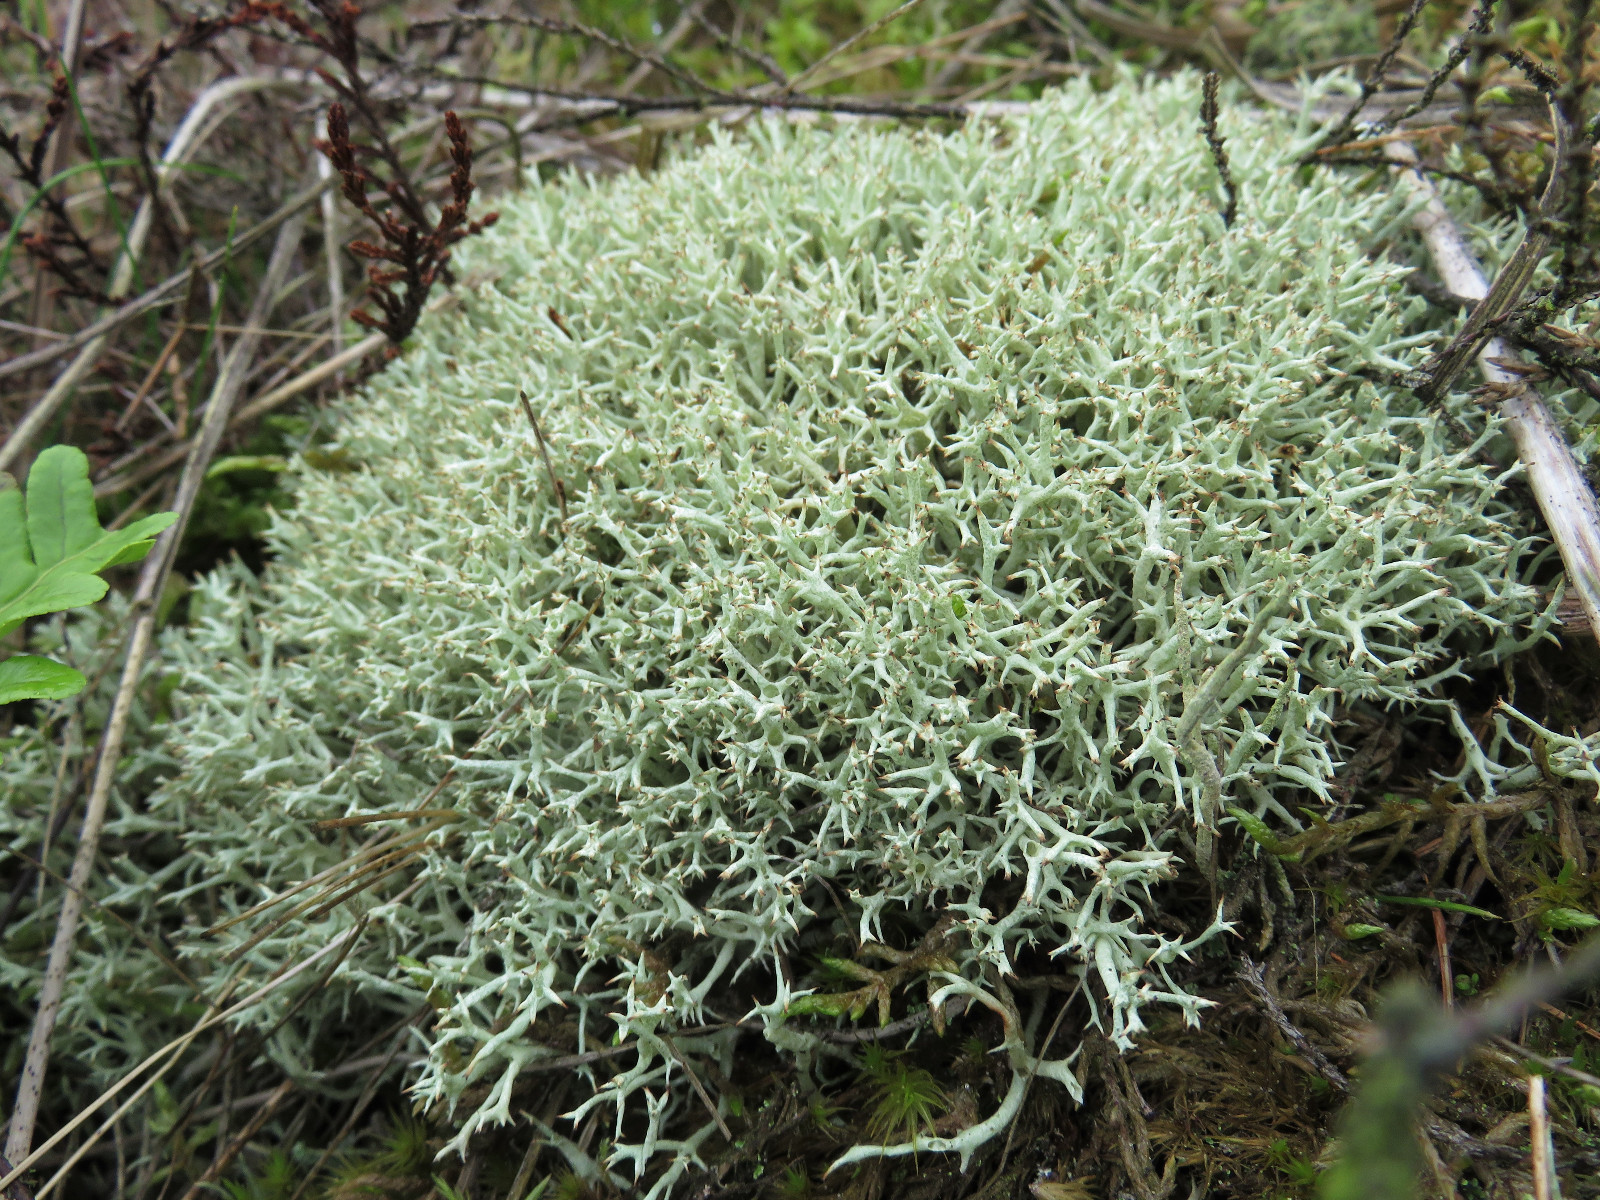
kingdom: Fungi
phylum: Ascomycota
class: Lecanoromycetes
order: Lecanorales
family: Cladoniaceae
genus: Cladonia
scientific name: Cladonia uncialis
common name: Thorn lichen
